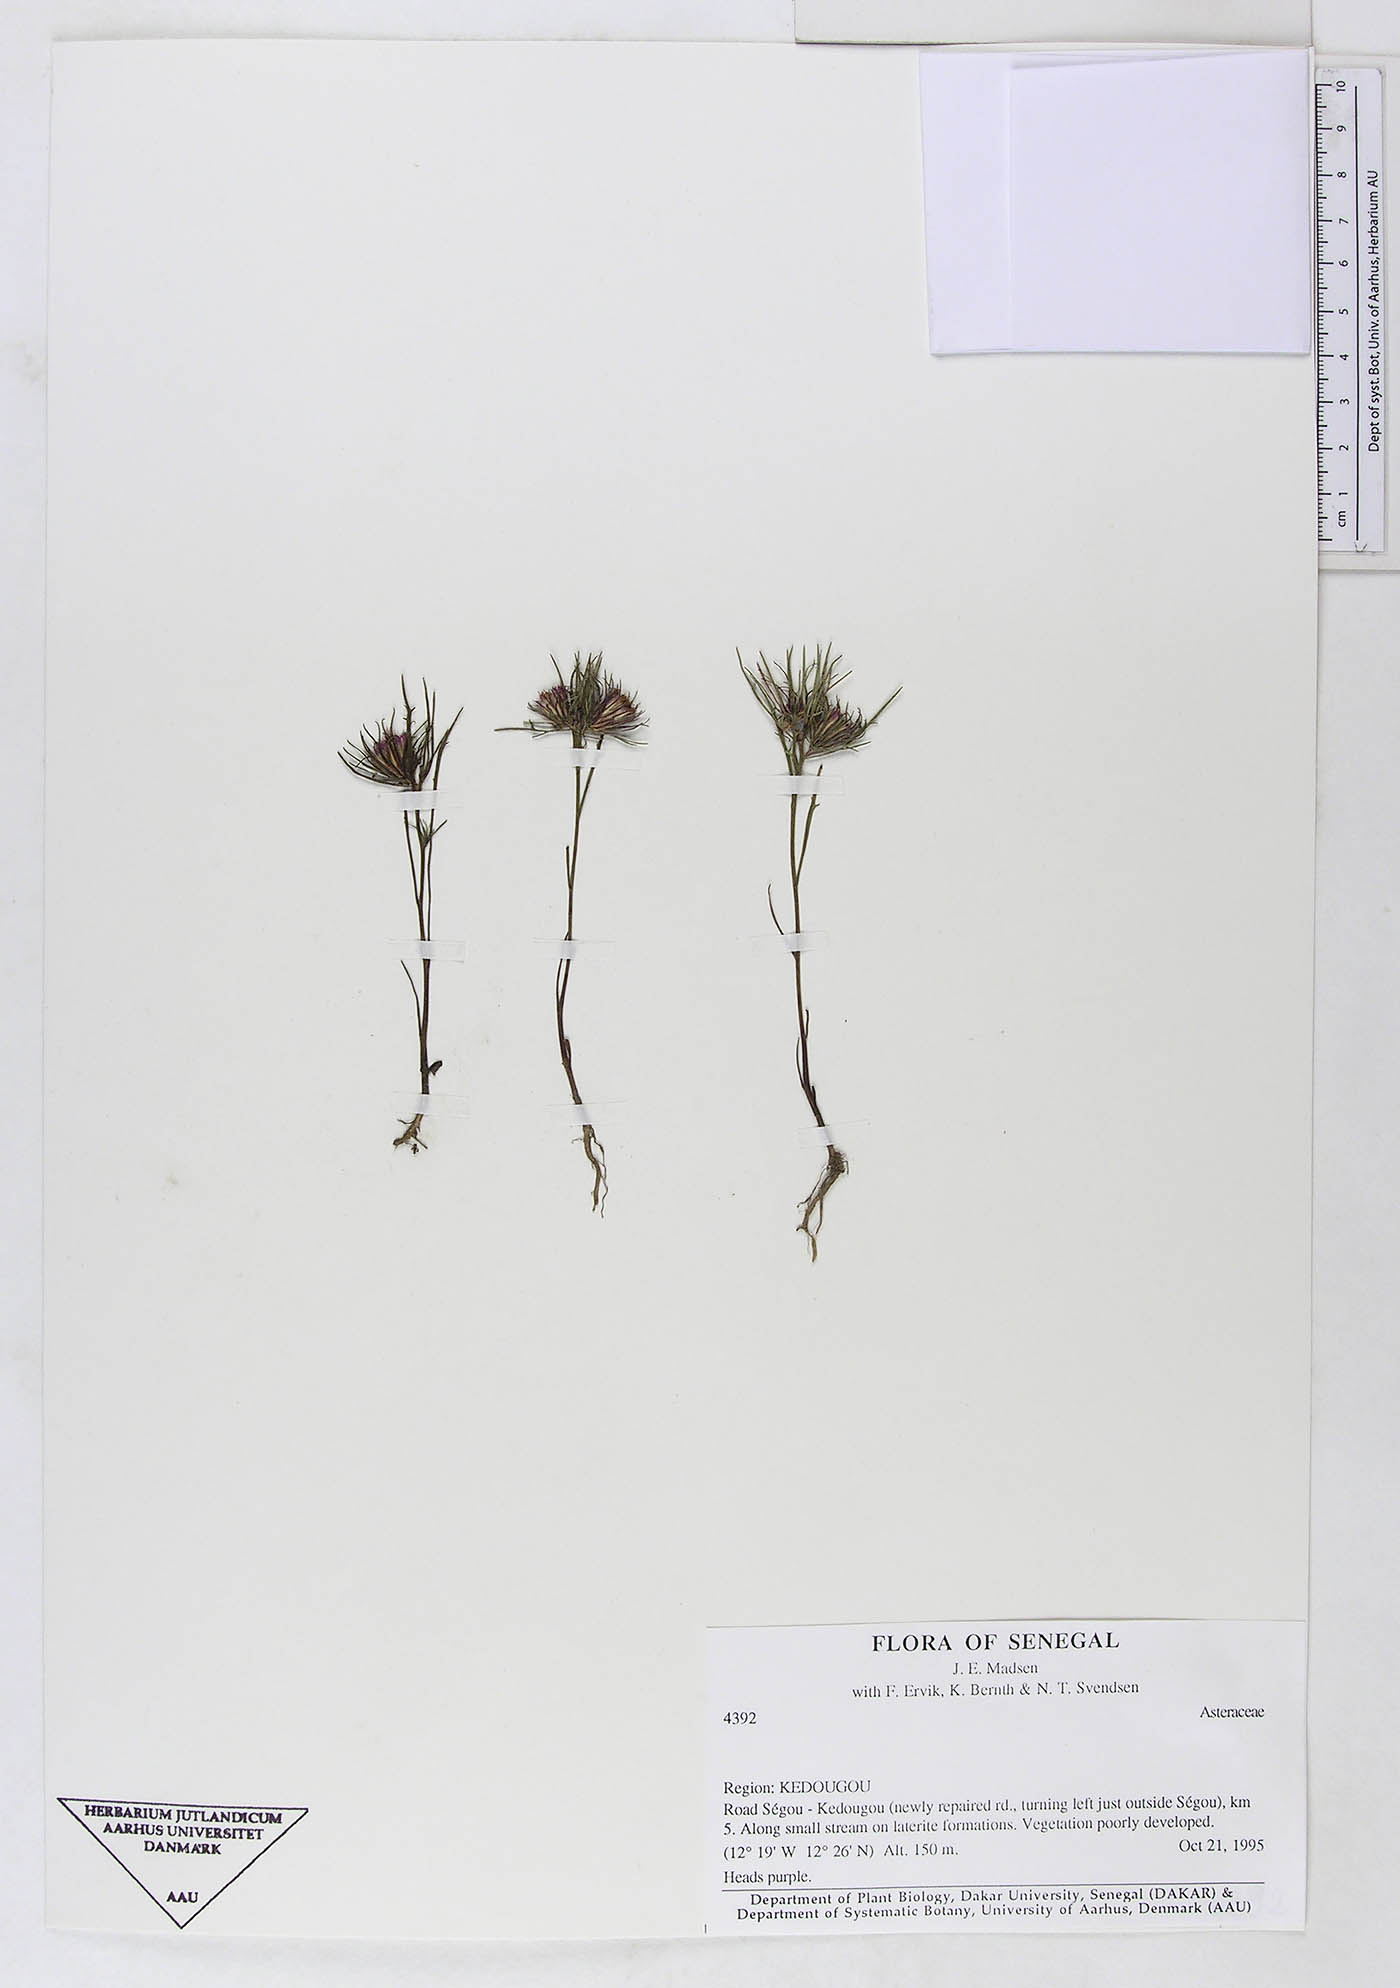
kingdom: Plantae
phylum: Tracheophyta
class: Magnoliopsida
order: Asterales
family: Asteraceae
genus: Adelostigma
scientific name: Adelostigma senegalensis
